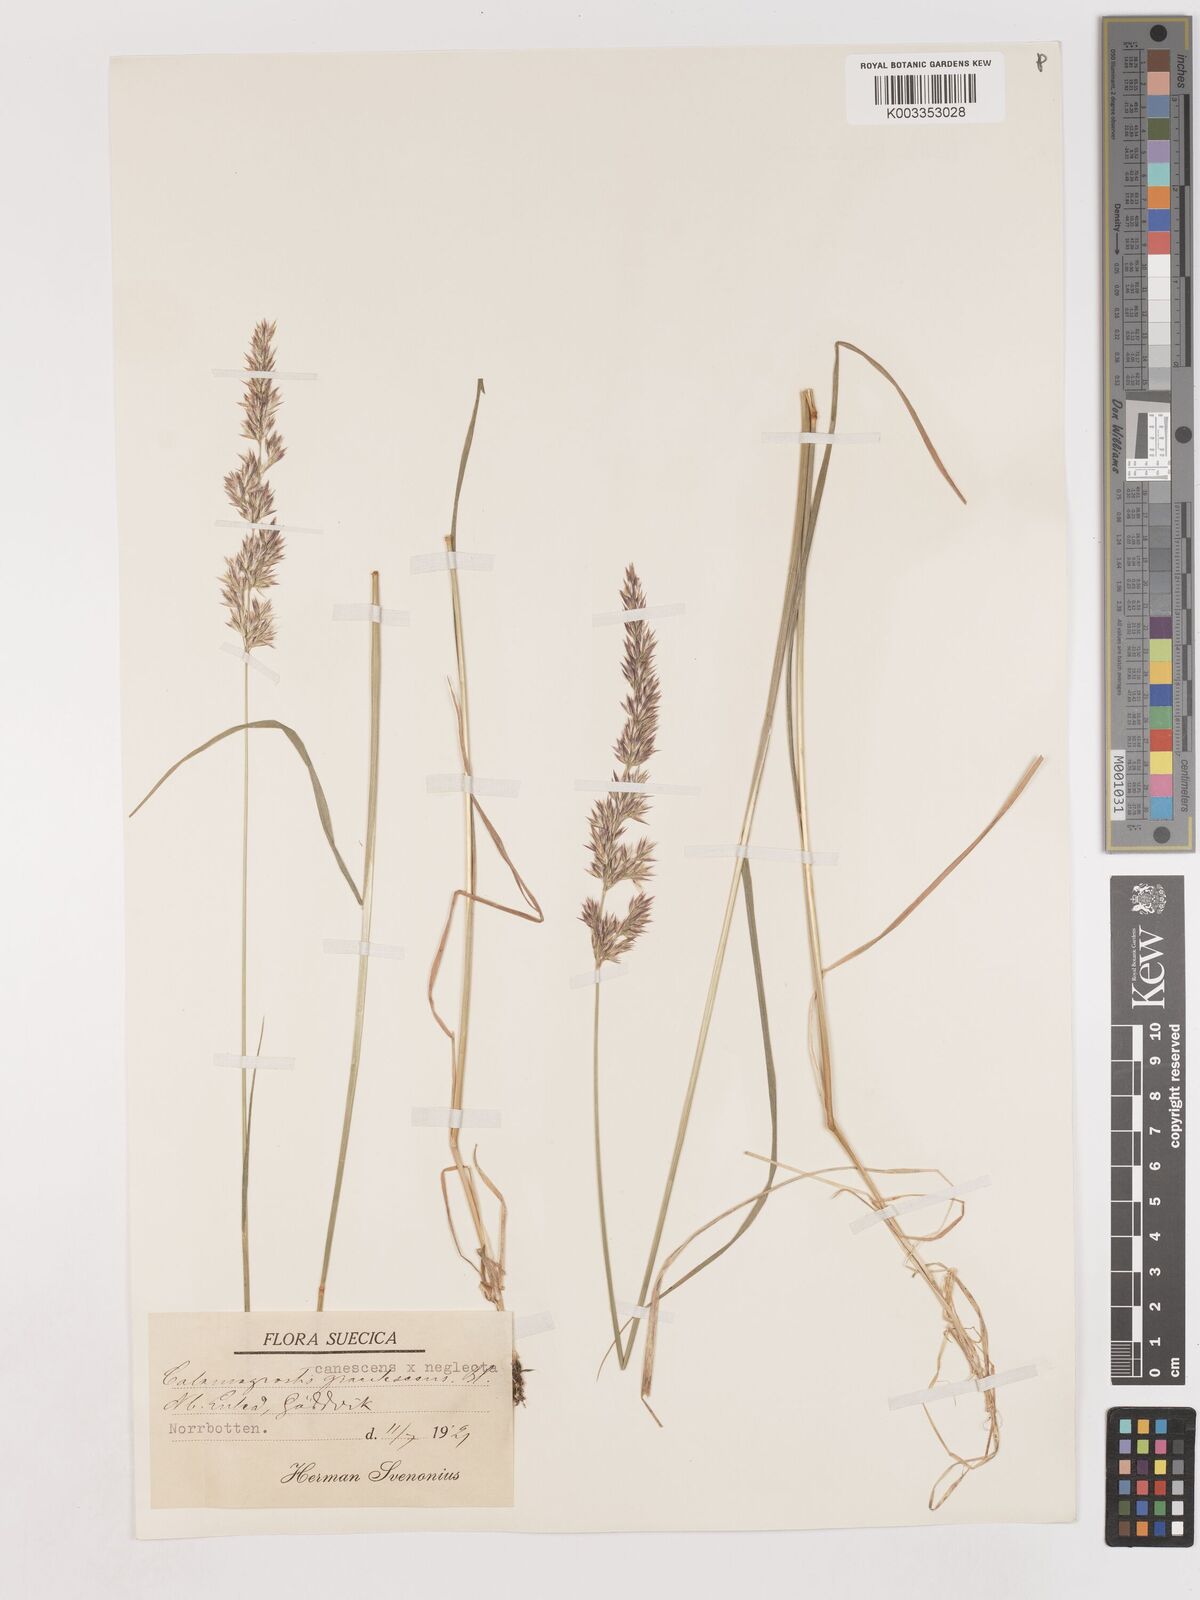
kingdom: Plantae
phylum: Tracheophyta
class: Liliopsida
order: Poales
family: Poaceae
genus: Calamagrostis
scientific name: Calamagrostis canescens
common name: Purple small-reed
